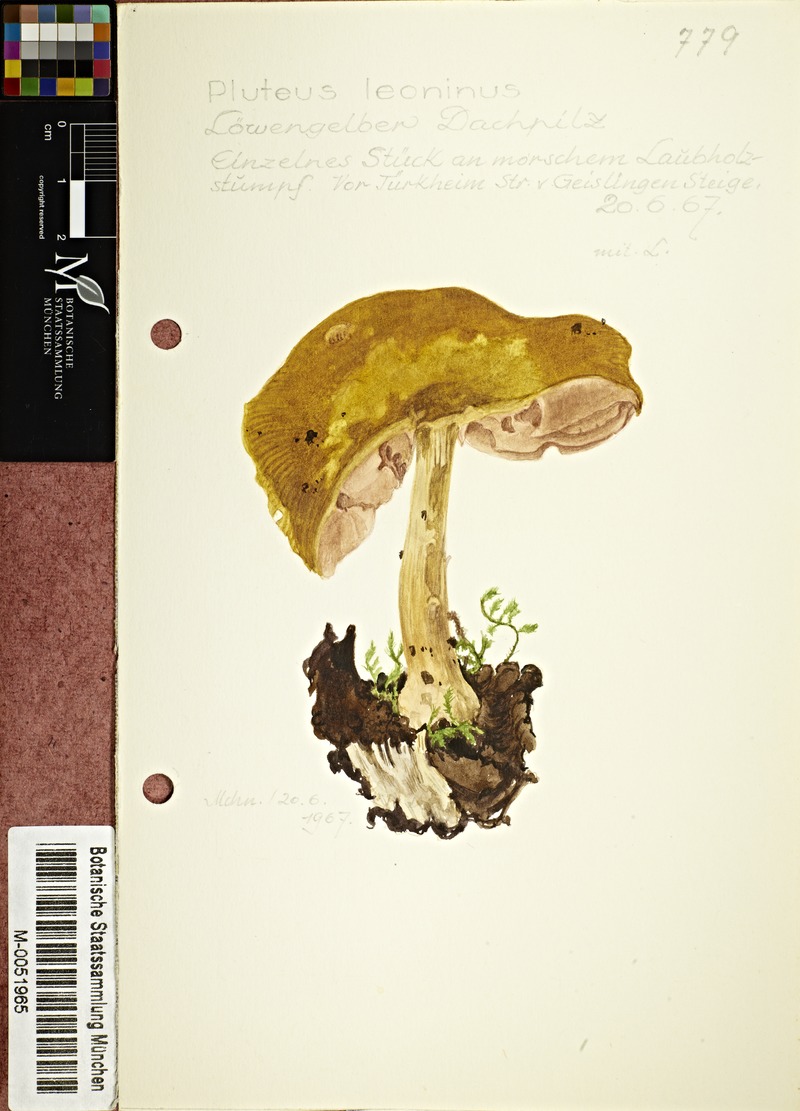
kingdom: Fungi
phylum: Basidiomycota
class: Agaricomycetes
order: Agaricales
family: Pluteaceae
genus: Pluteus
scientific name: Pluteus leoninus
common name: Lion shield
